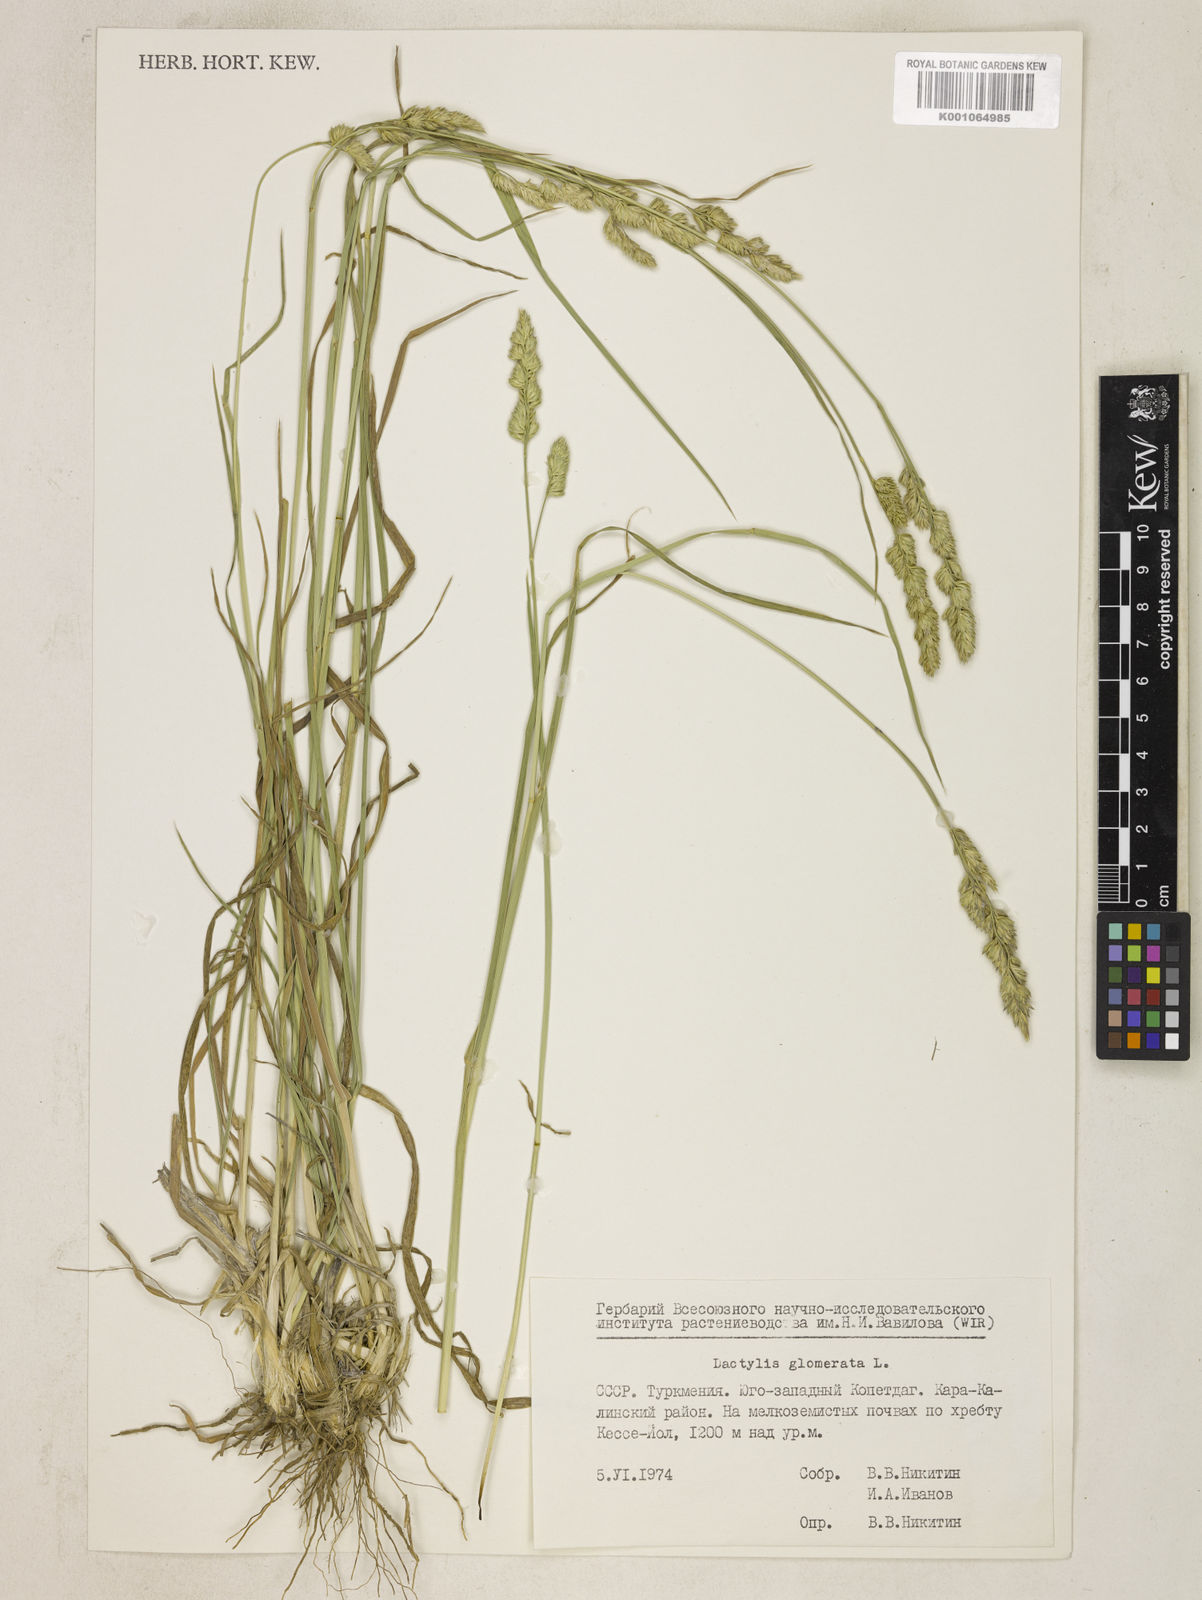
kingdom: Plantae
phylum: Tracheophyta
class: Liliopsida
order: Poales
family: Poaceae
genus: Dactylis
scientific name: Dactylis glomerata
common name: Orchardgrass
